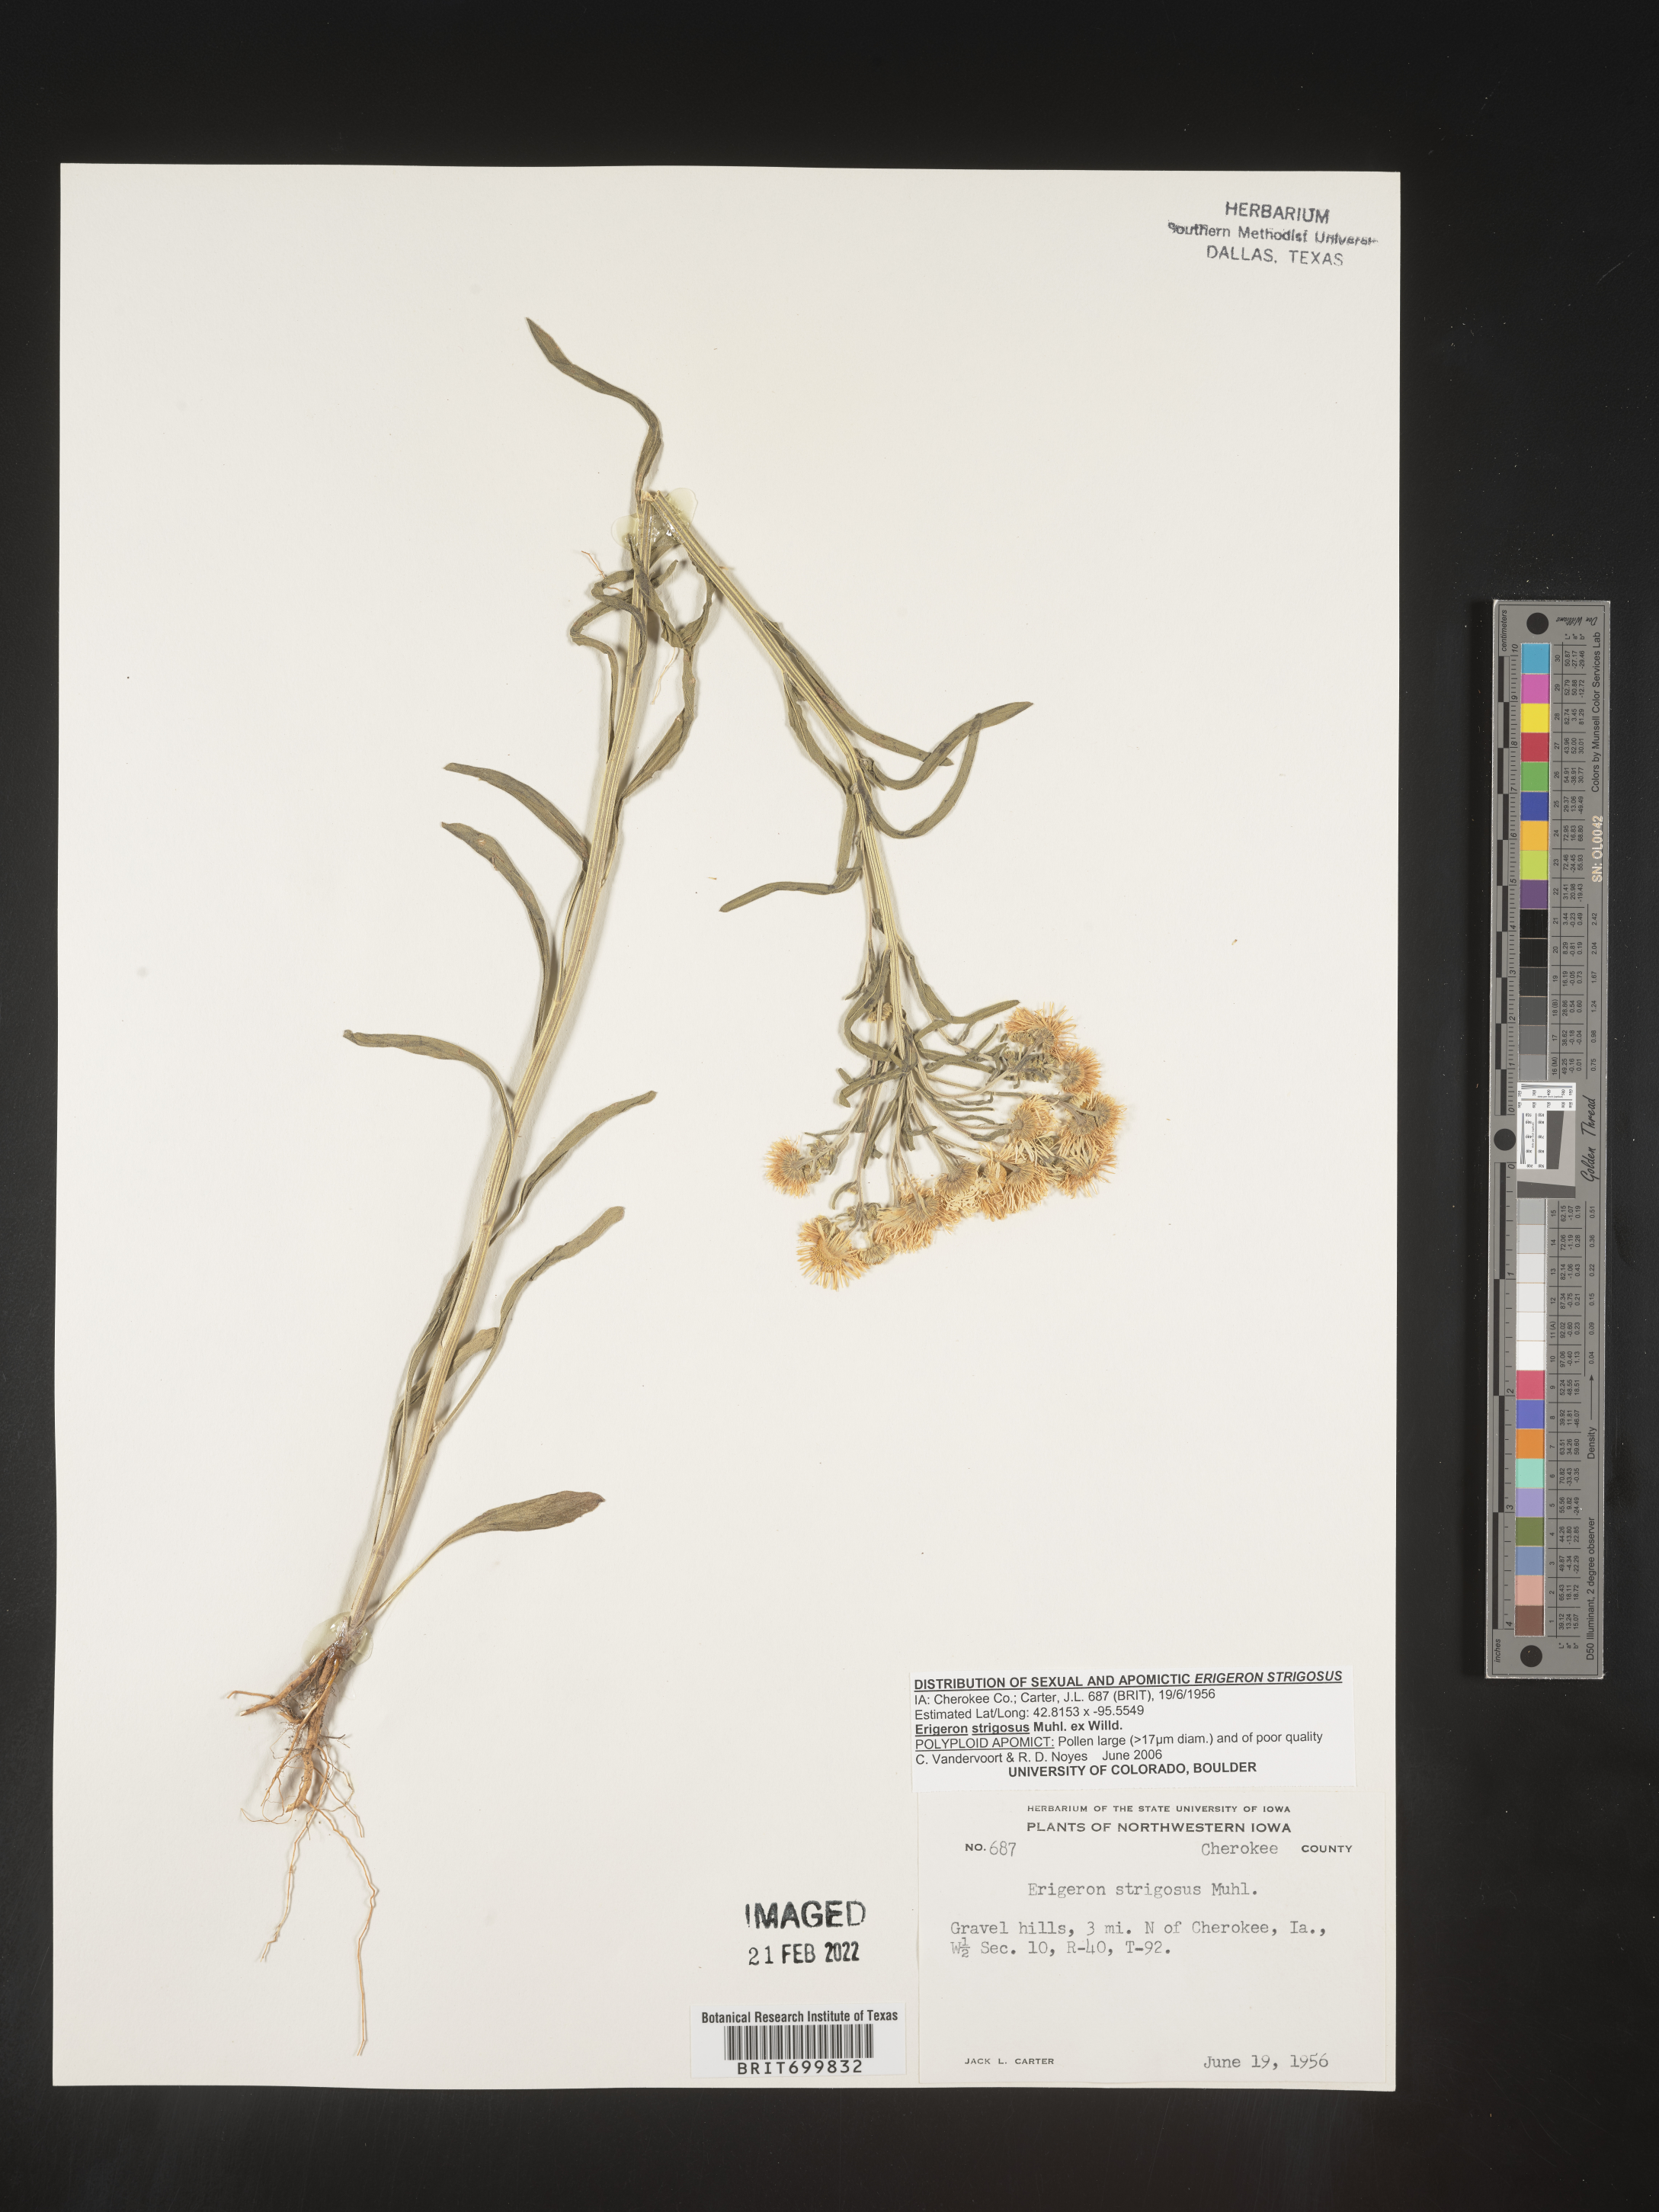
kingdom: Plantae
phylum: Tracheophyta
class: Magnoliopsida
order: Asterales
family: Asteraceae
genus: Erigeron
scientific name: Erigeron strigosus
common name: Common eastern fleabane
